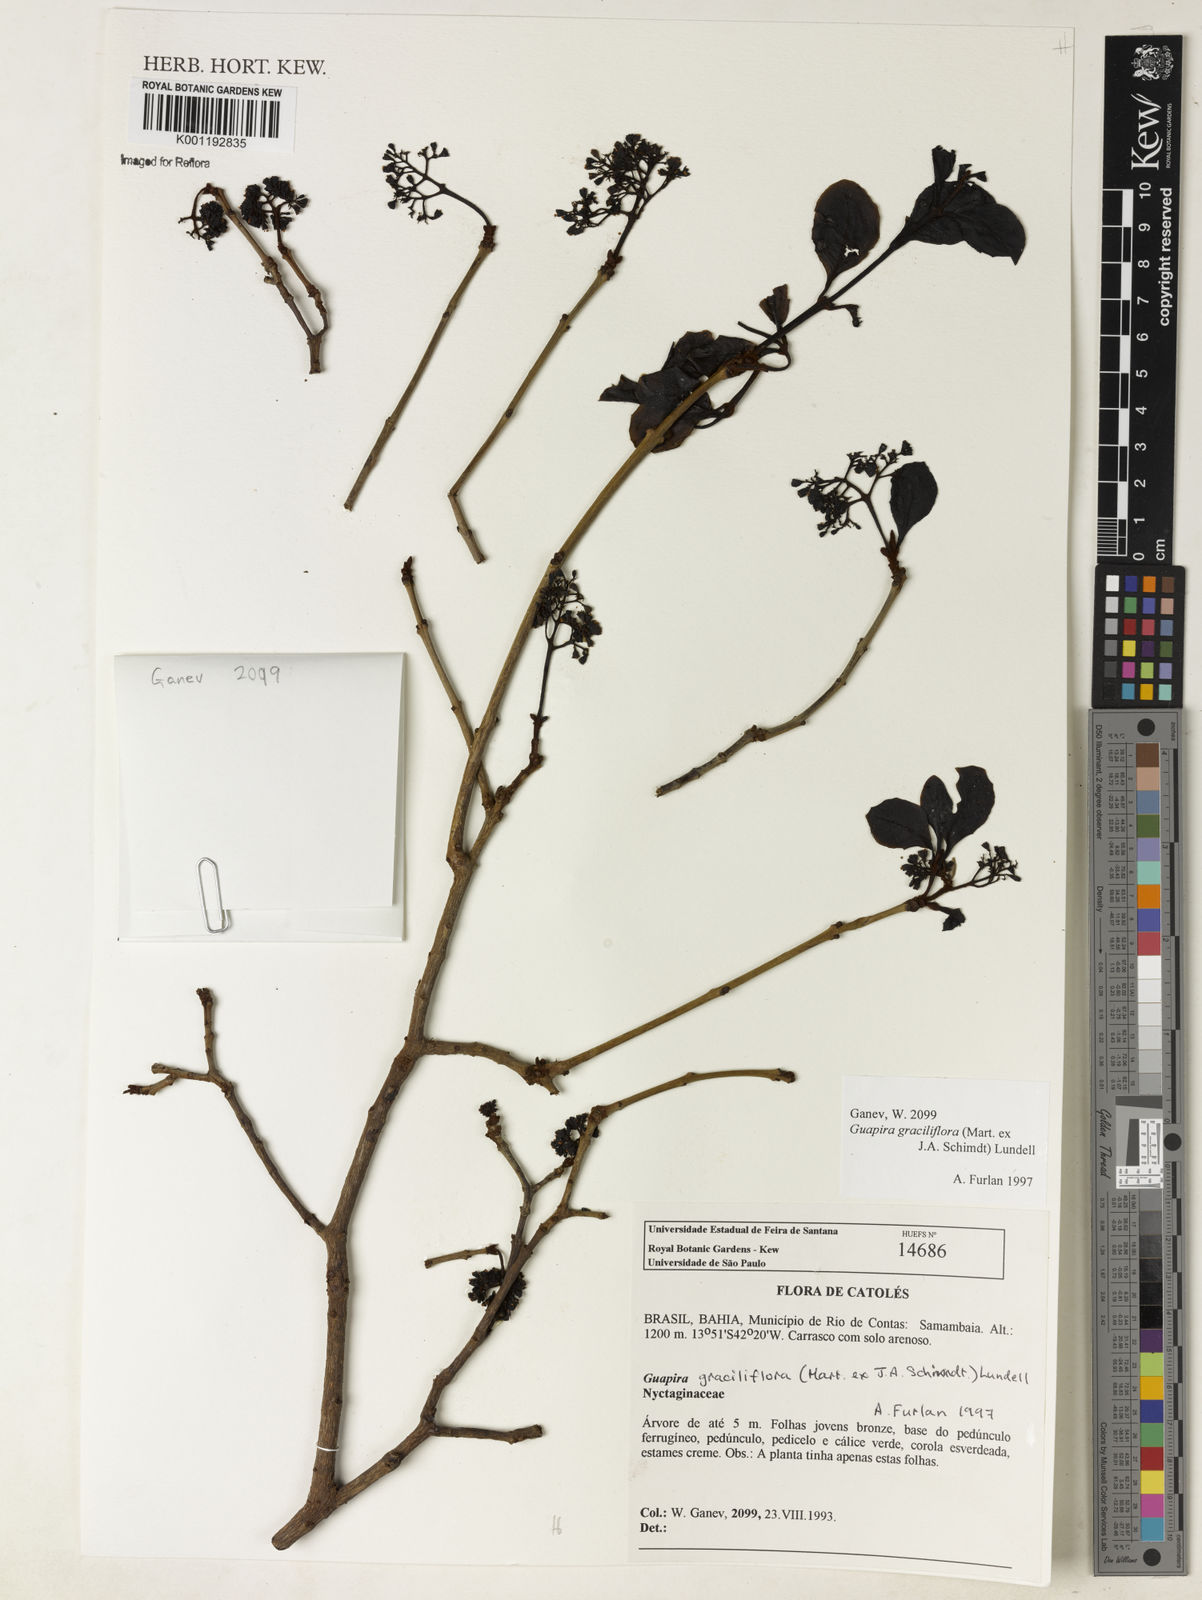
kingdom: Plantae
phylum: Tracheophyta
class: Magnoliopsida
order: Caryophyllales
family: Nyctaginaceae
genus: Guapira
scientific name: Guapira graciliflora
